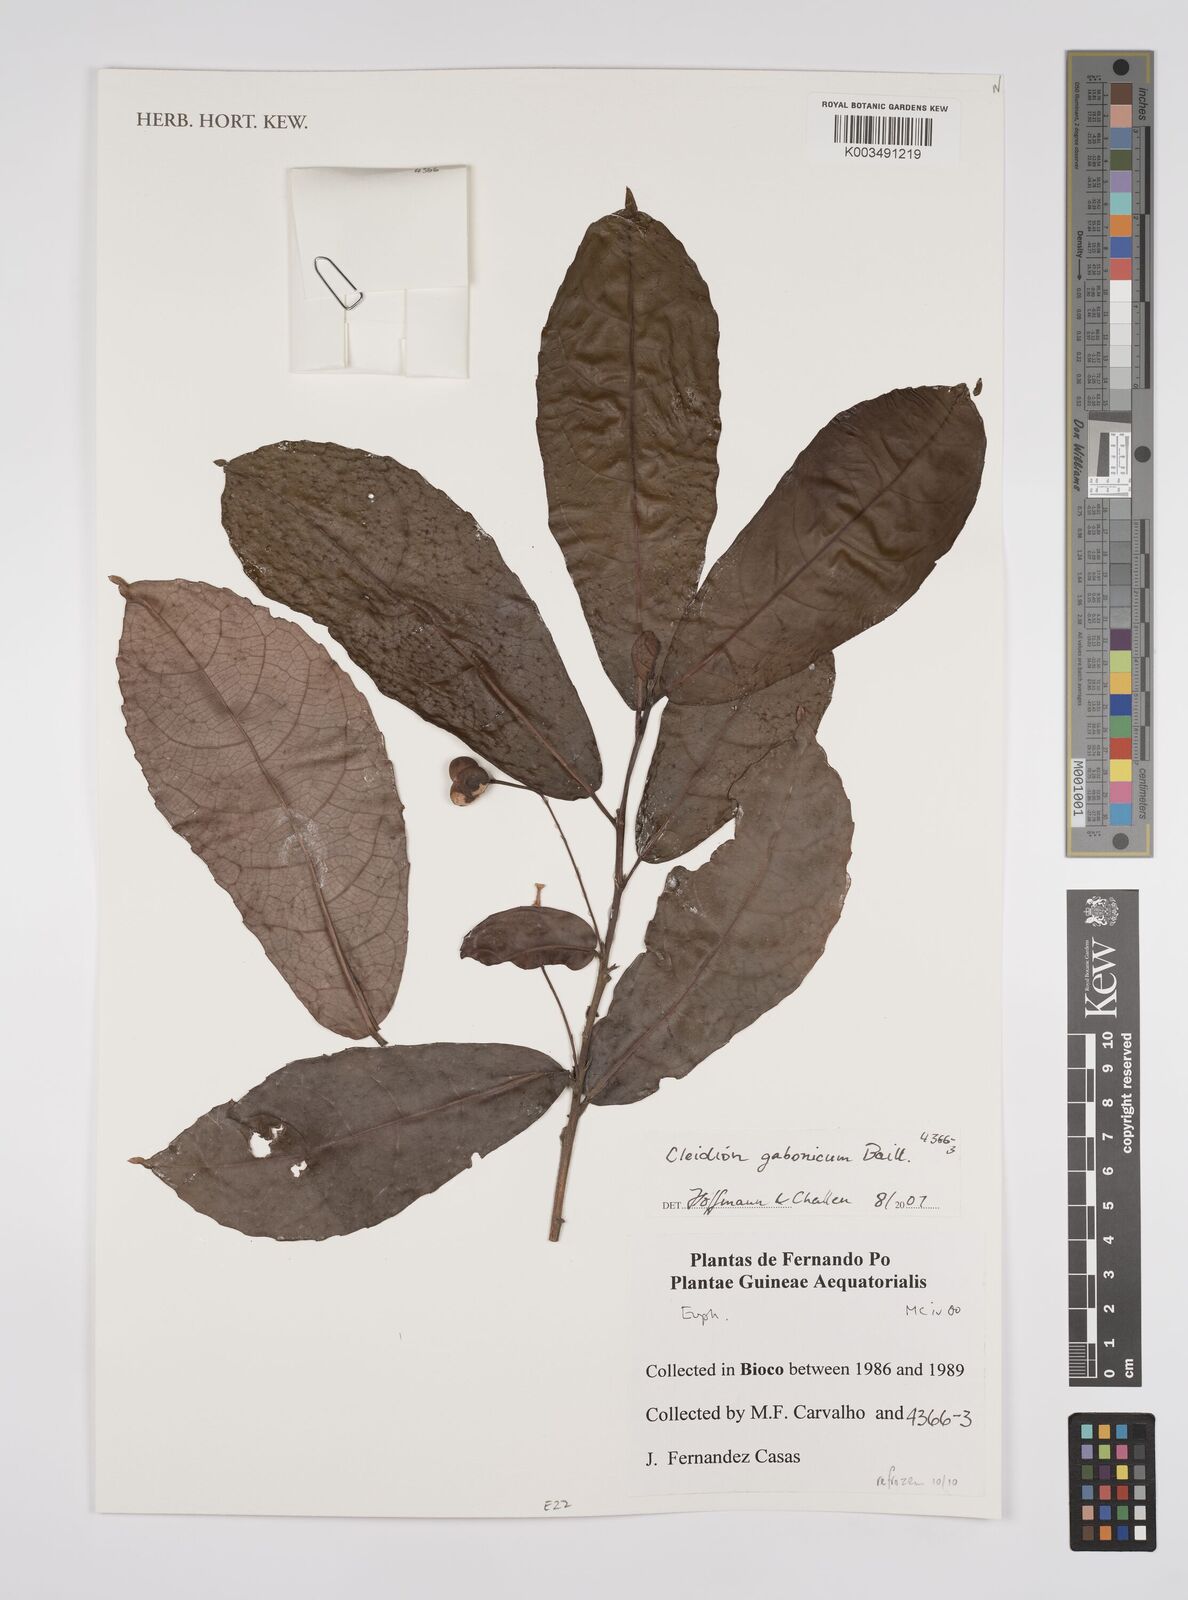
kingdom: Plantae
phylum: Tracheophyta
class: Magnoliopsida
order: Malpighiales
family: Euphorbiaceae
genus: Cleidion
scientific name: Cleidion gabonicum
